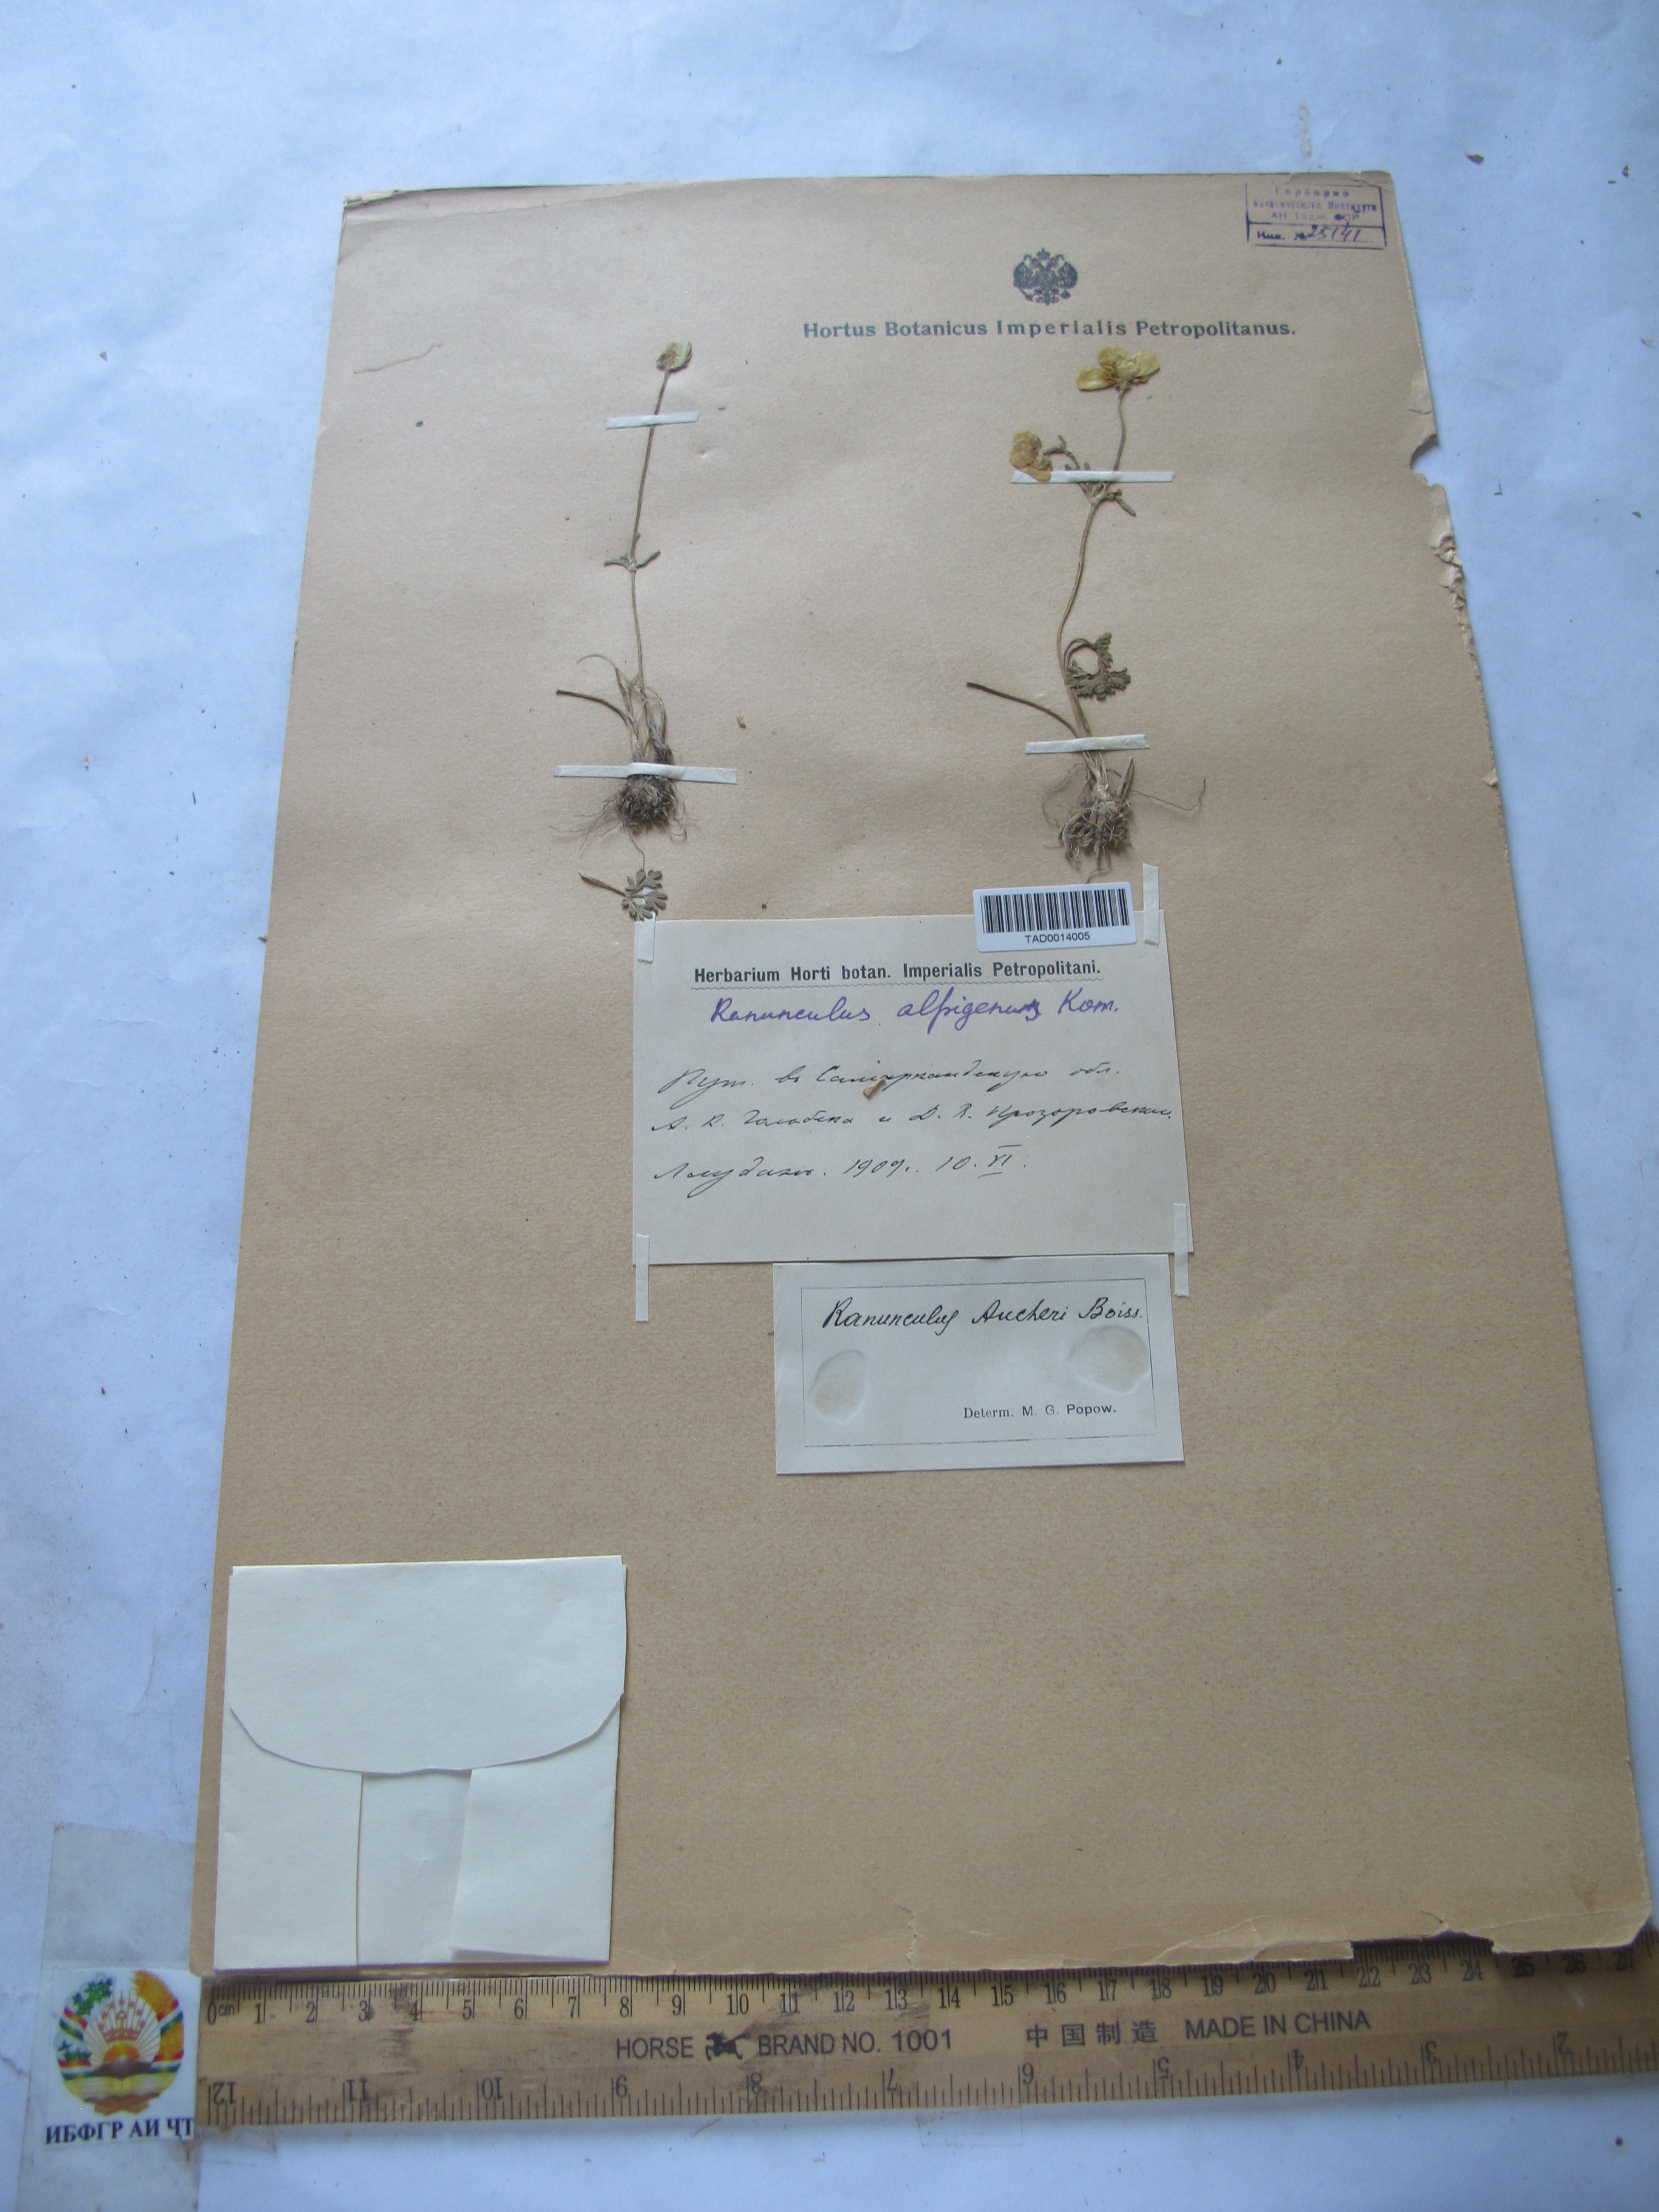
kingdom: Plantae
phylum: Tracheophyta
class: Magnoliopsida
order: Ranunculales
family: Ranunculaceae
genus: Ranunculus
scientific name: Ranunculus aucheri
